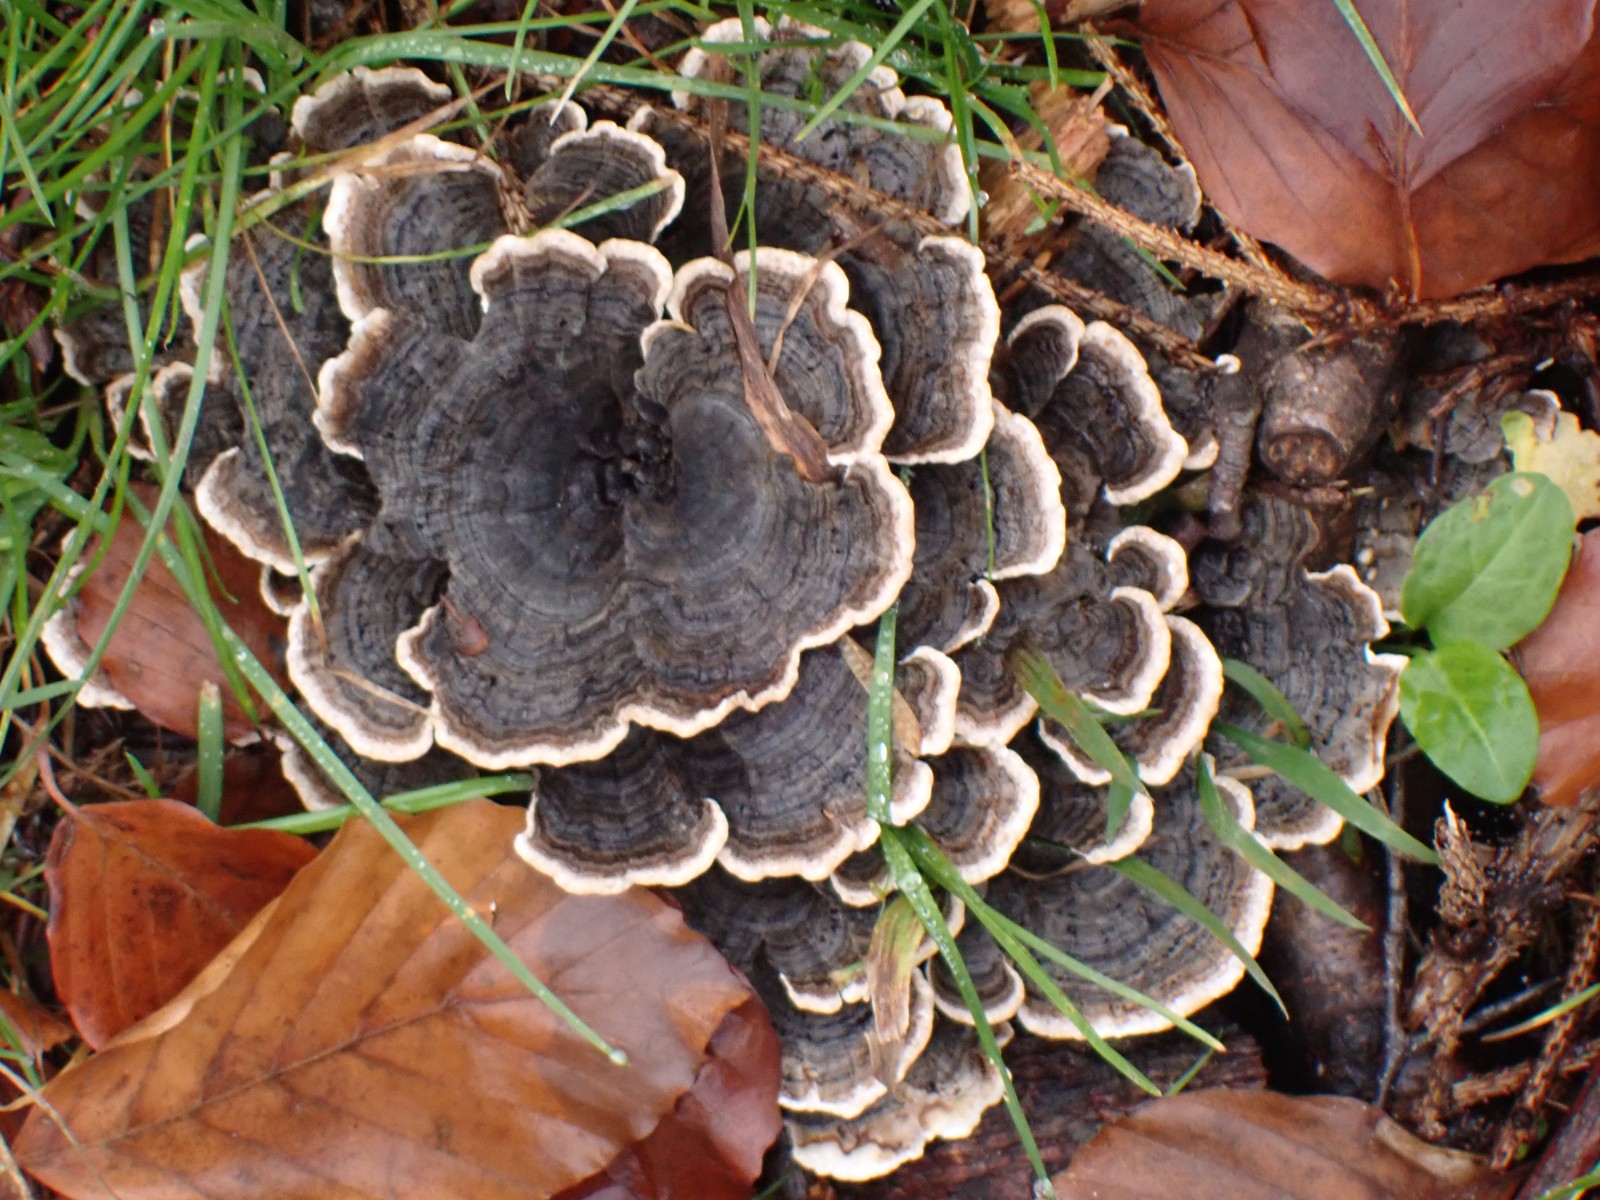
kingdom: Fungi
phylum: Basidiomycota
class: Agaricomycetes
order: Polyporales
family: Polyporaceae
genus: Trametes
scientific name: Trametes versicolor
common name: broget læderporesvamp
